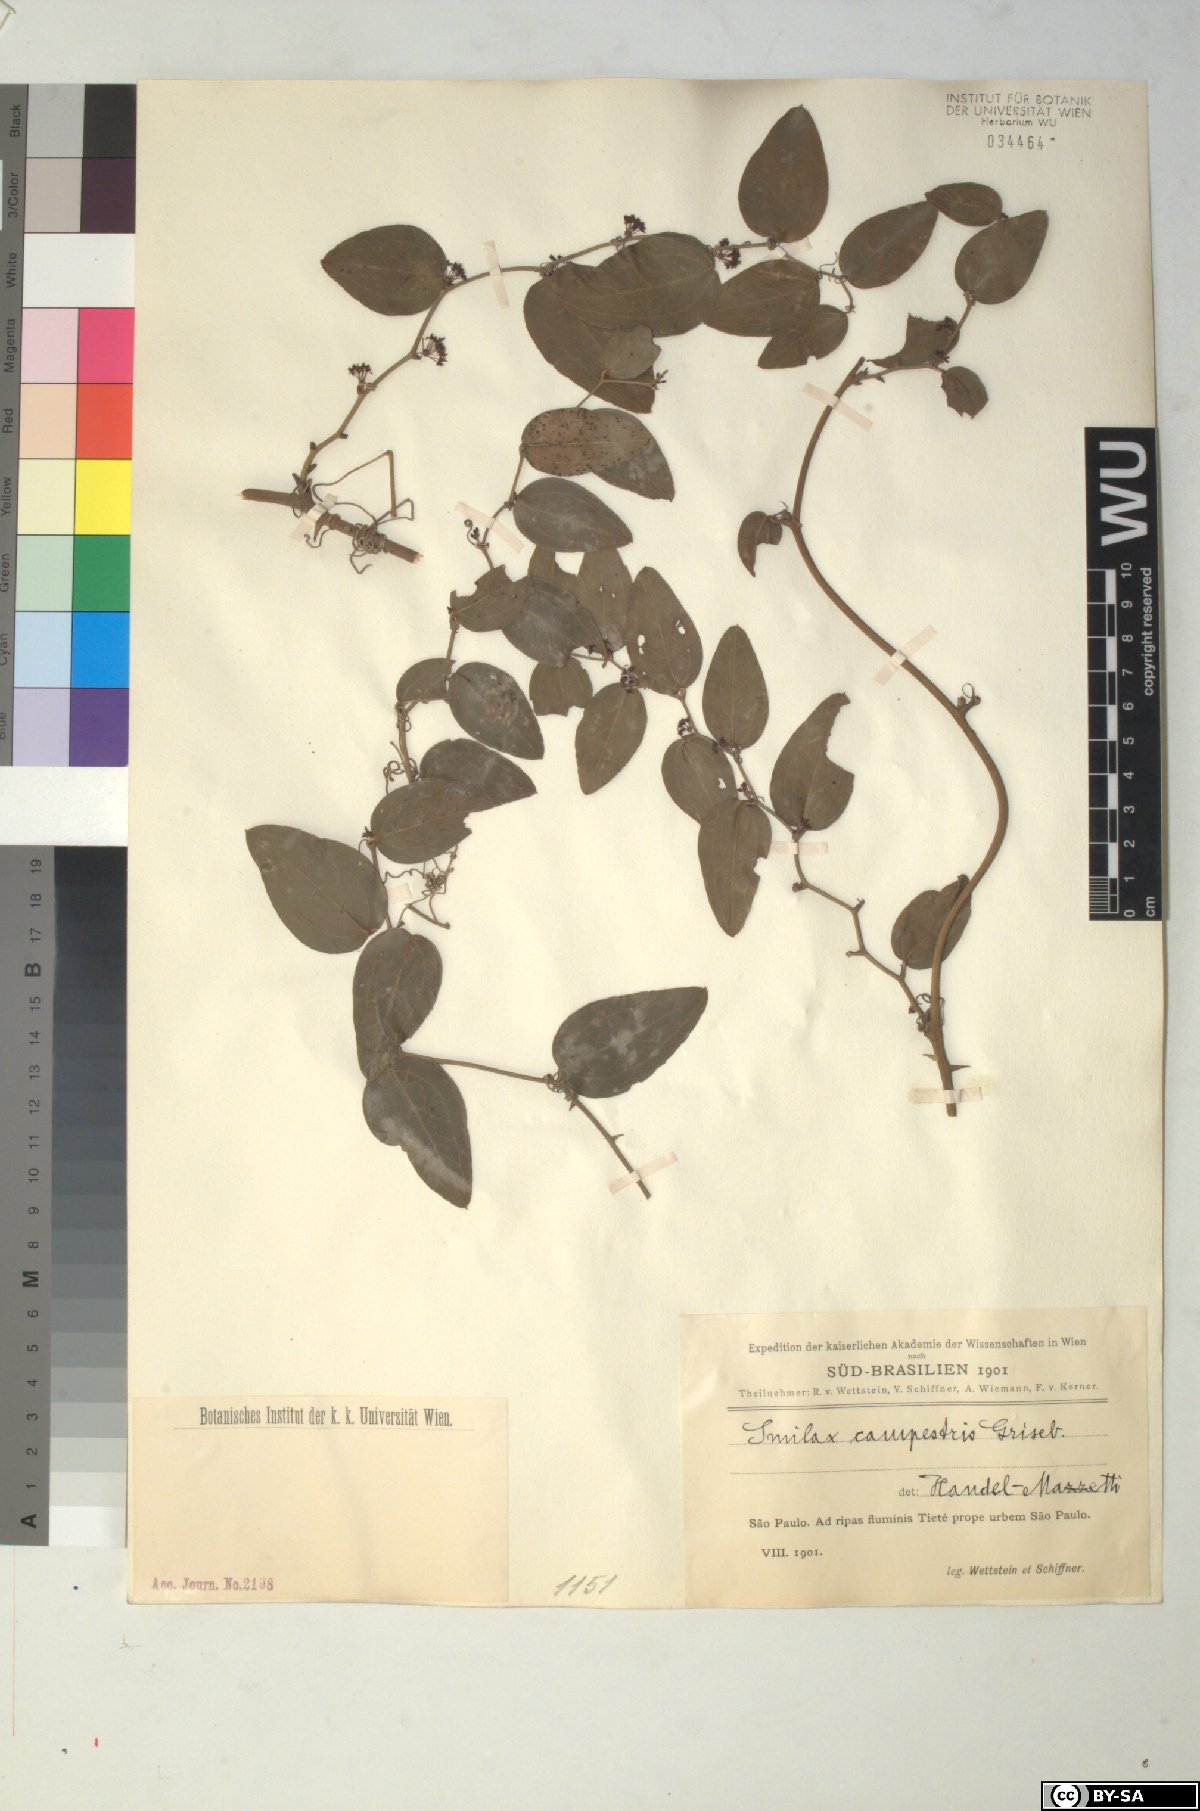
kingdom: Plantae
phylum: Tracheophyta
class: Liliopsida
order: Liliales
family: Smilacaceae
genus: Smilax
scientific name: Smilax campestris
